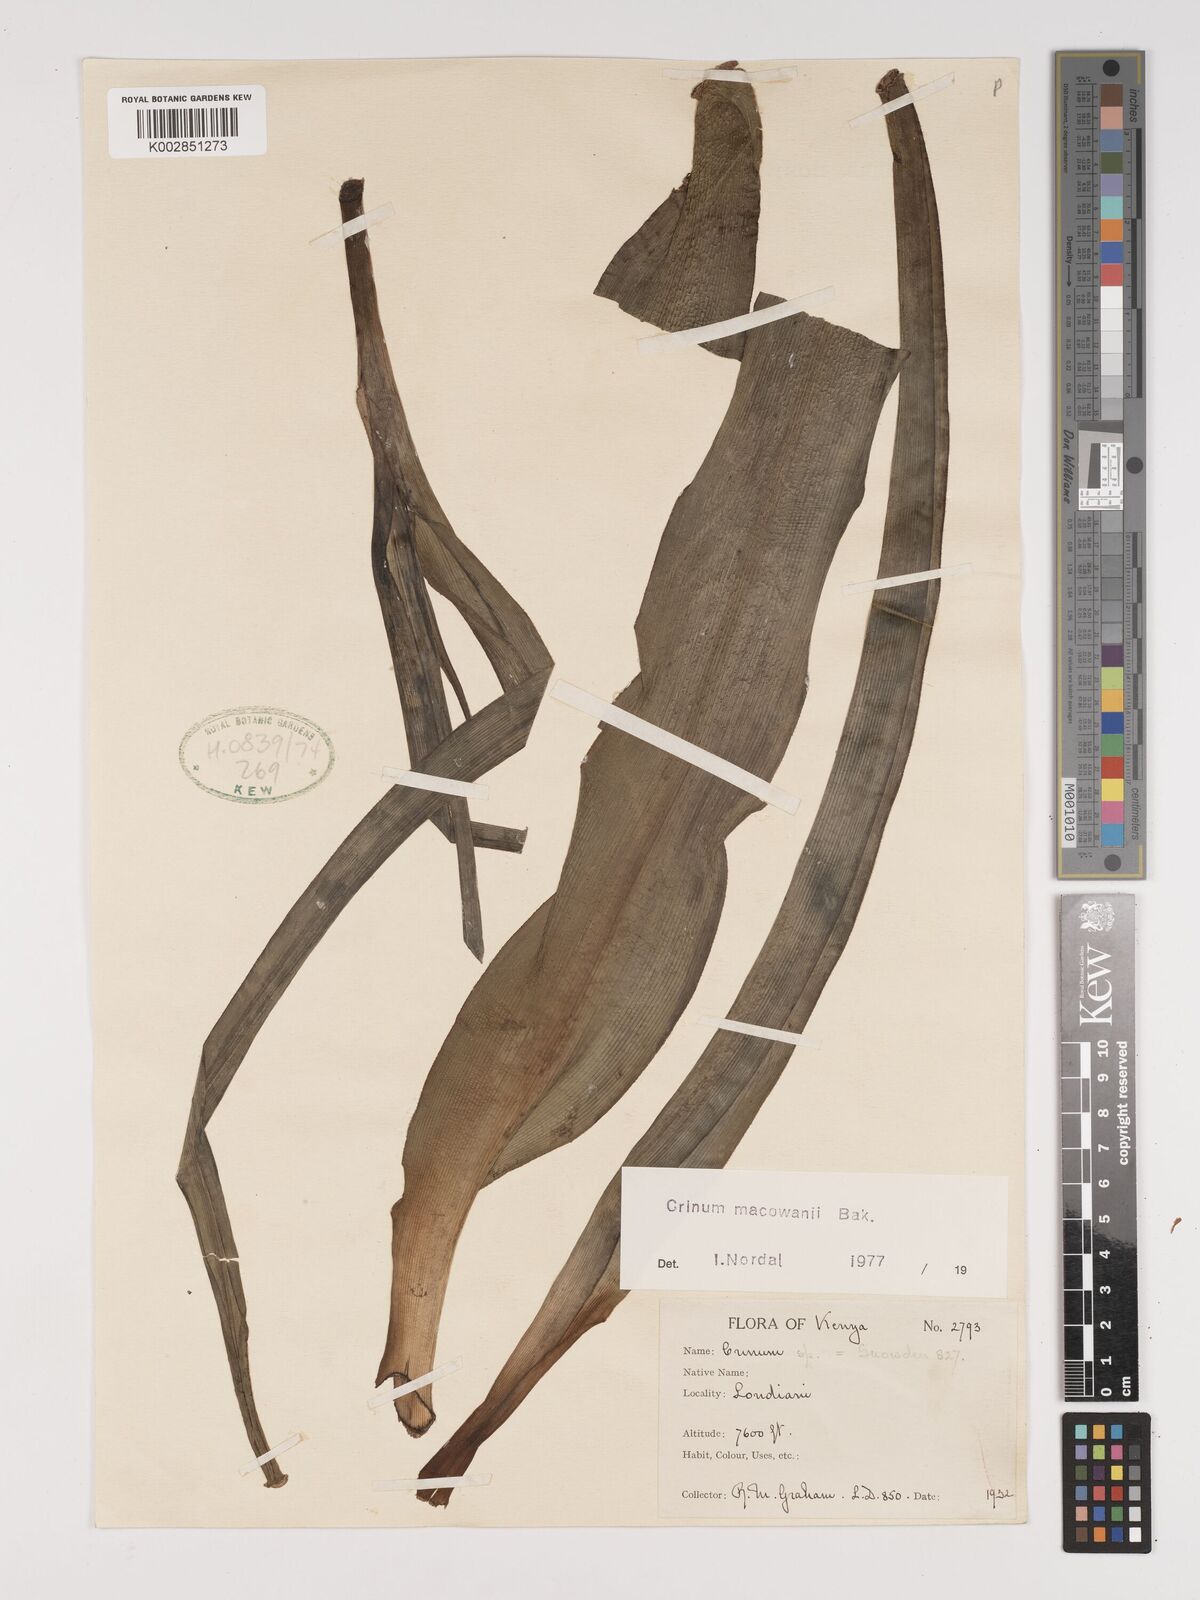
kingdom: Plantae
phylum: Tracheophyta
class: Liliopsida
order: Asparagales
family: Amaryllidaceae
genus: Crinum
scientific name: Crinum macowanii
